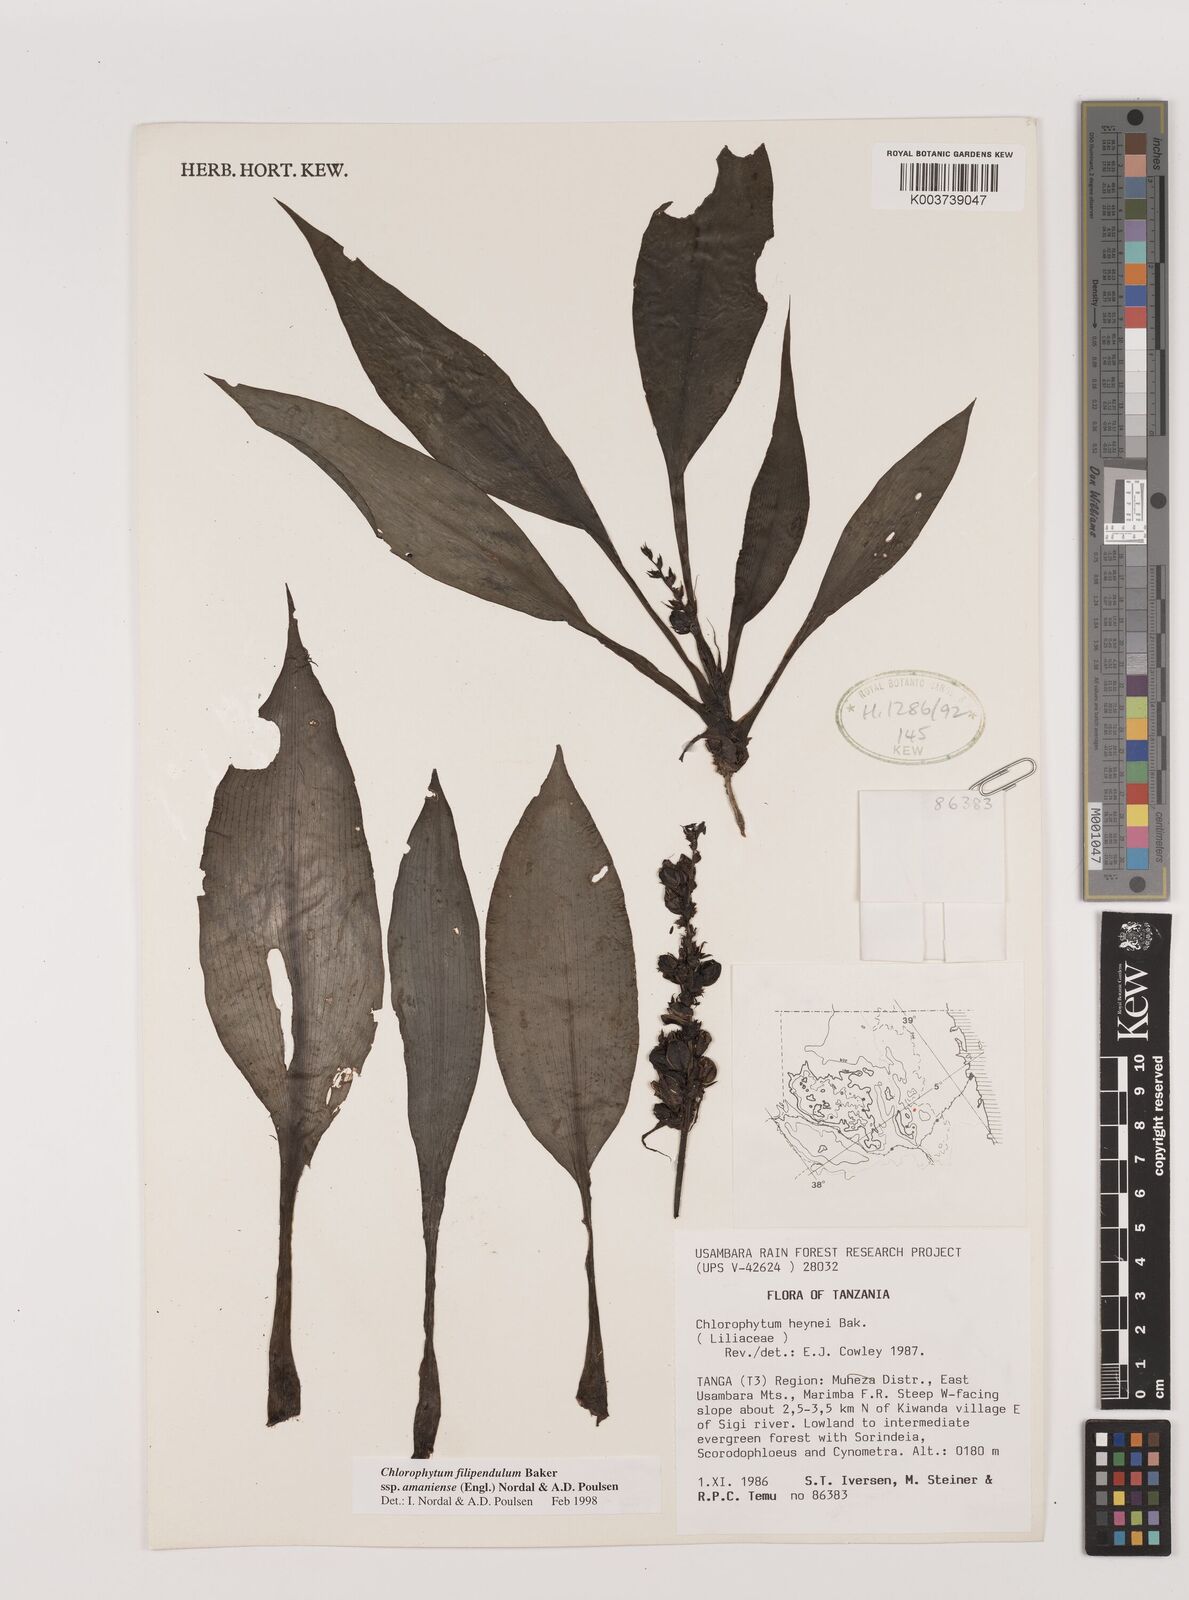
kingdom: Plantae
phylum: Tracheophyta
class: Liliopsida
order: Asparagales
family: Asparagaceae
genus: Chlorophytum
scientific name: Chlorophytum filipendulum
